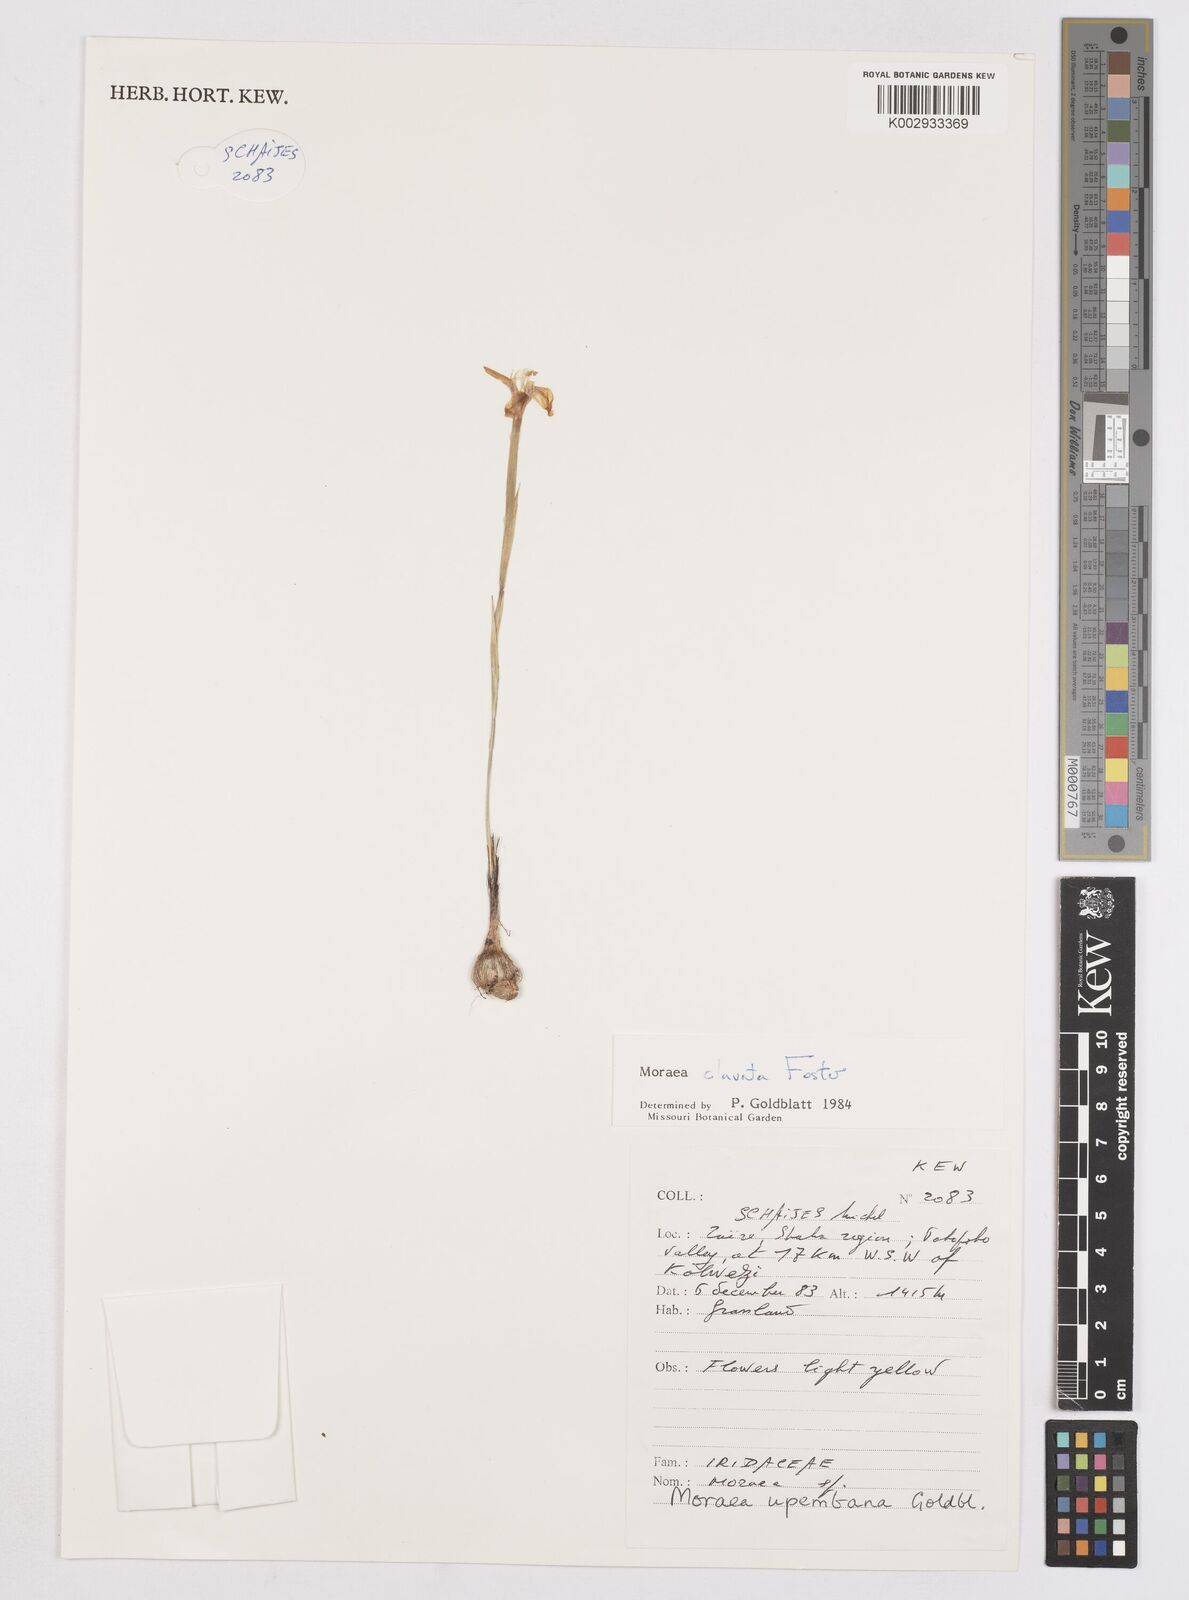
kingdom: Plantae
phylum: Tracheophyta
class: Liliopsida
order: Asparagales
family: Iridaceae
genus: Moraea
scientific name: Moraea clavata
